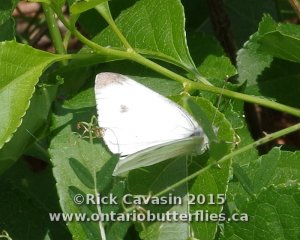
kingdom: Animalia
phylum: Arthropoda
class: Insecta
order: Lepidoptera
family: Pieridae
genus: Pieris
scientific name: Pieris rapae
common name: Cabbage White
